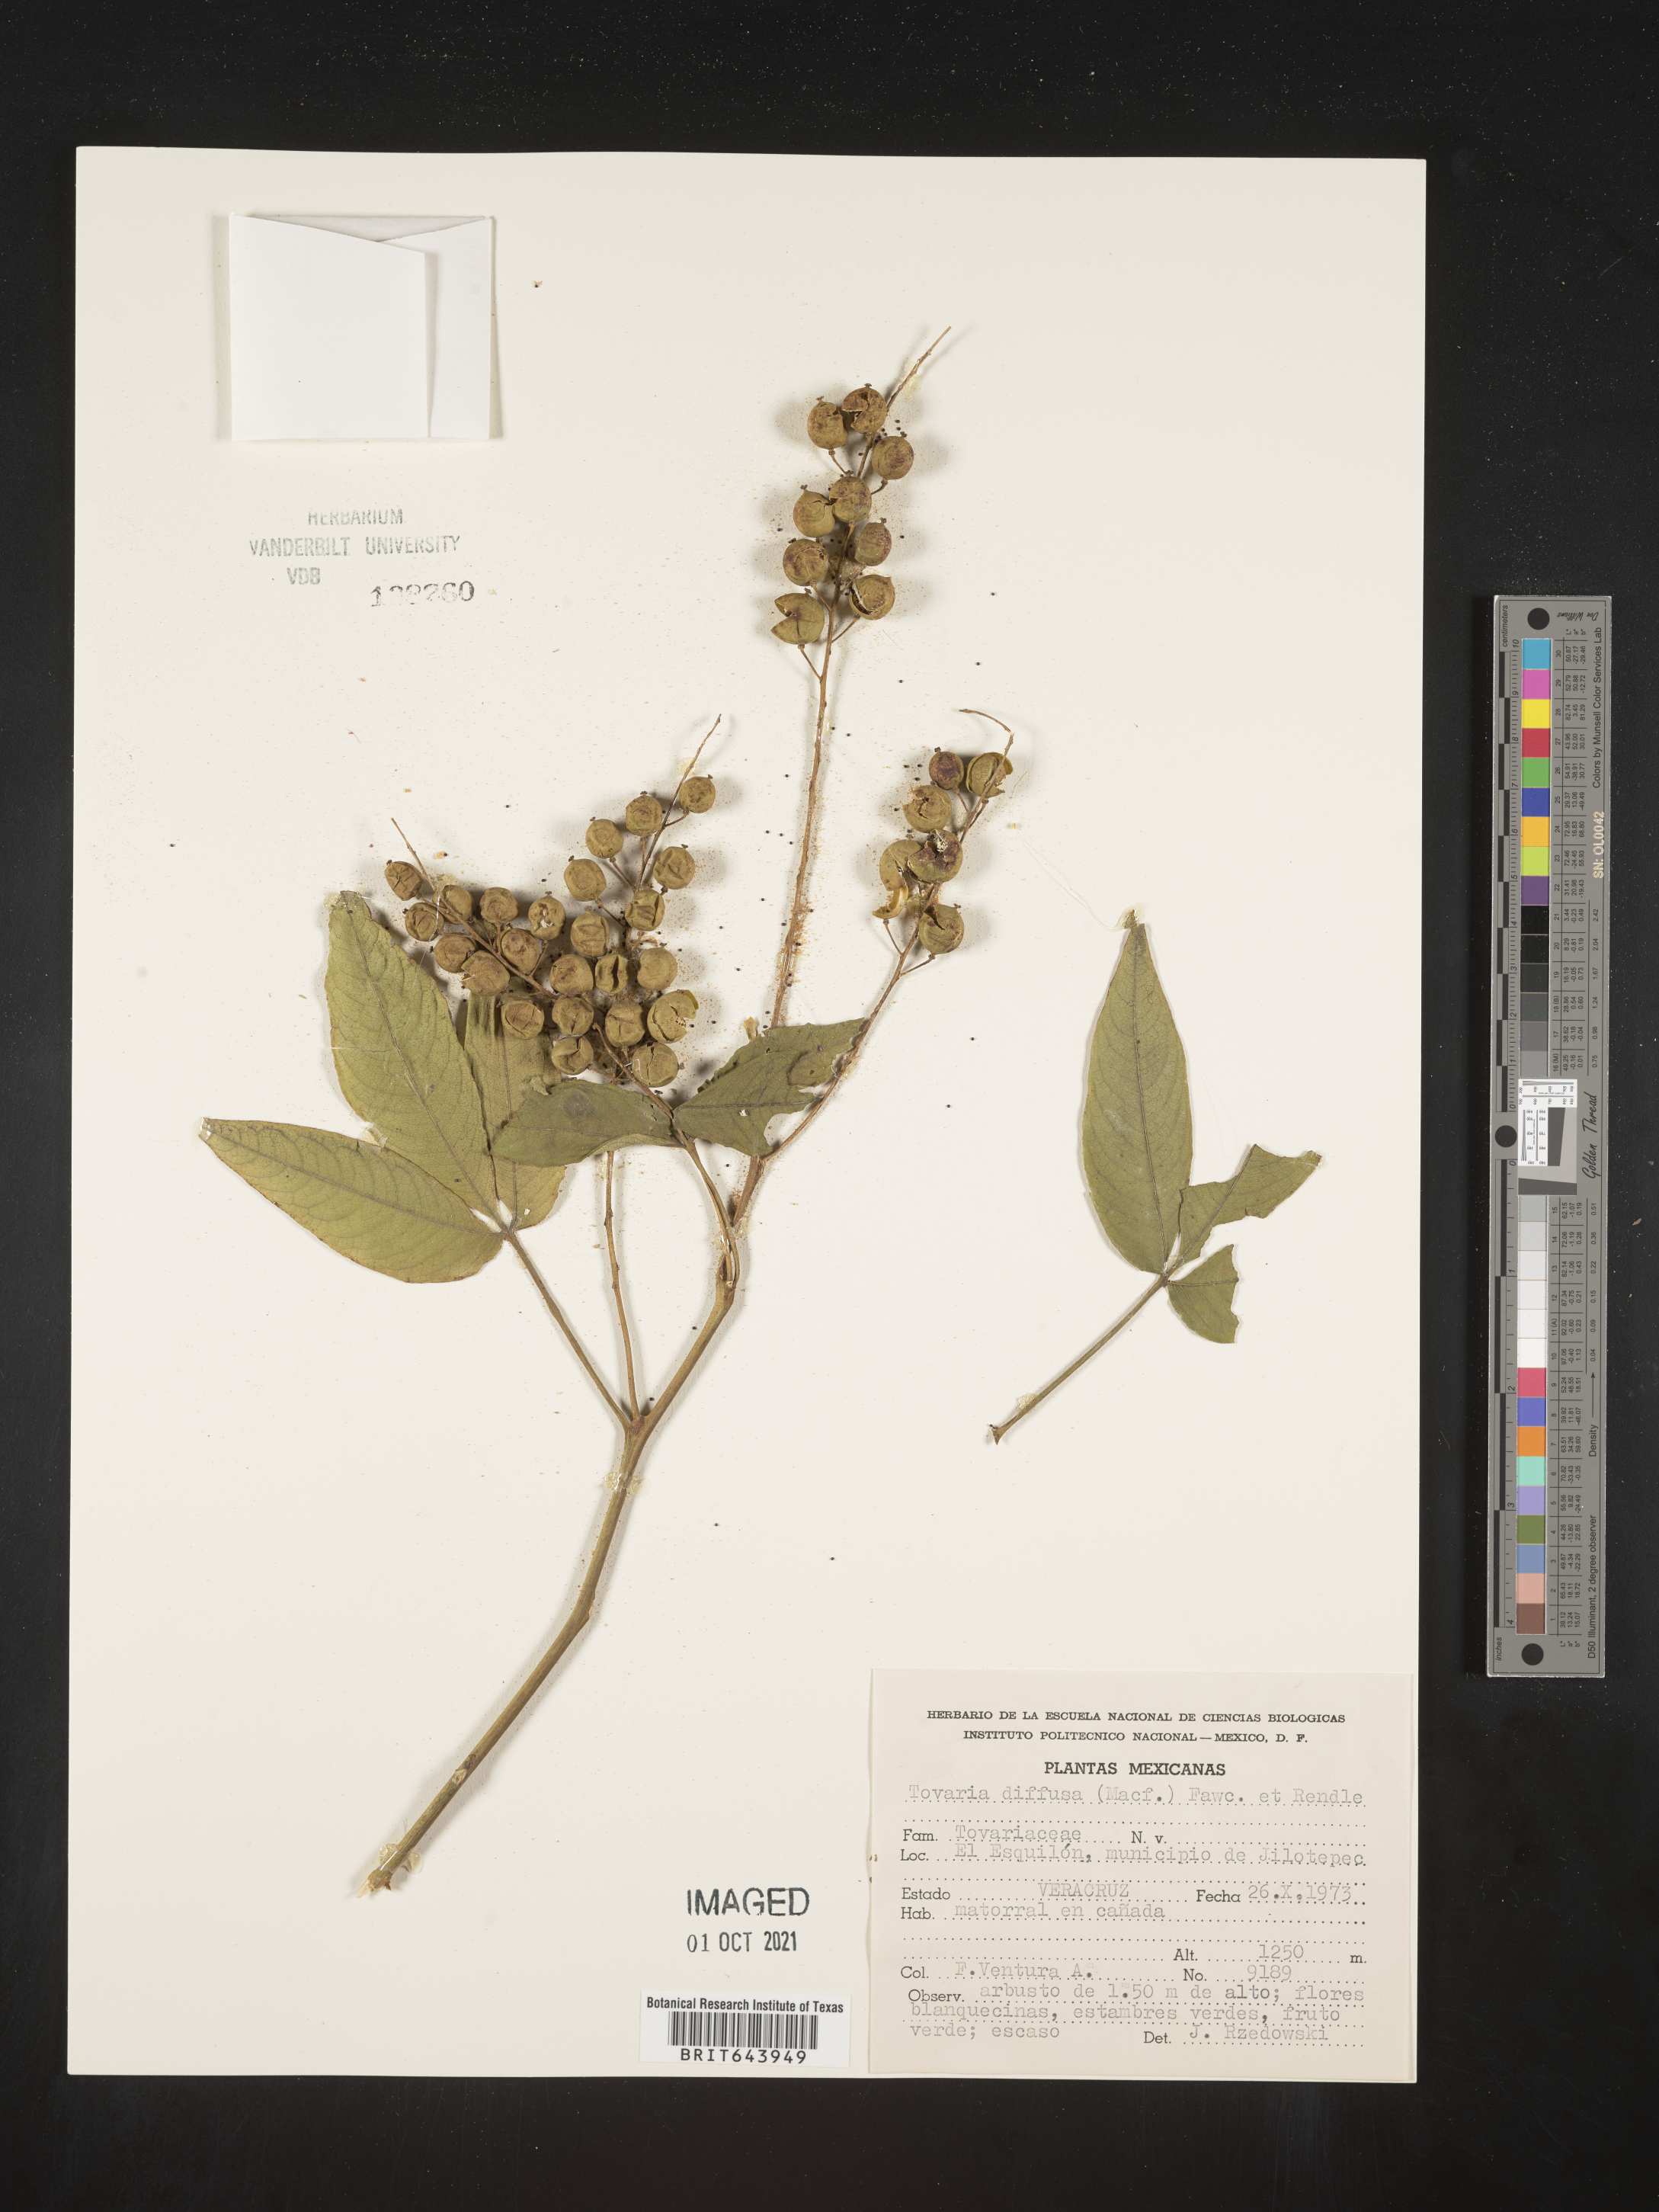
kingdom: Plantae
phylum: Tracheophyta
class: Magnoliopsida
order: Brassicales
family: Tovariaceae
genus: Tovaria
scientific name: Tovaria
